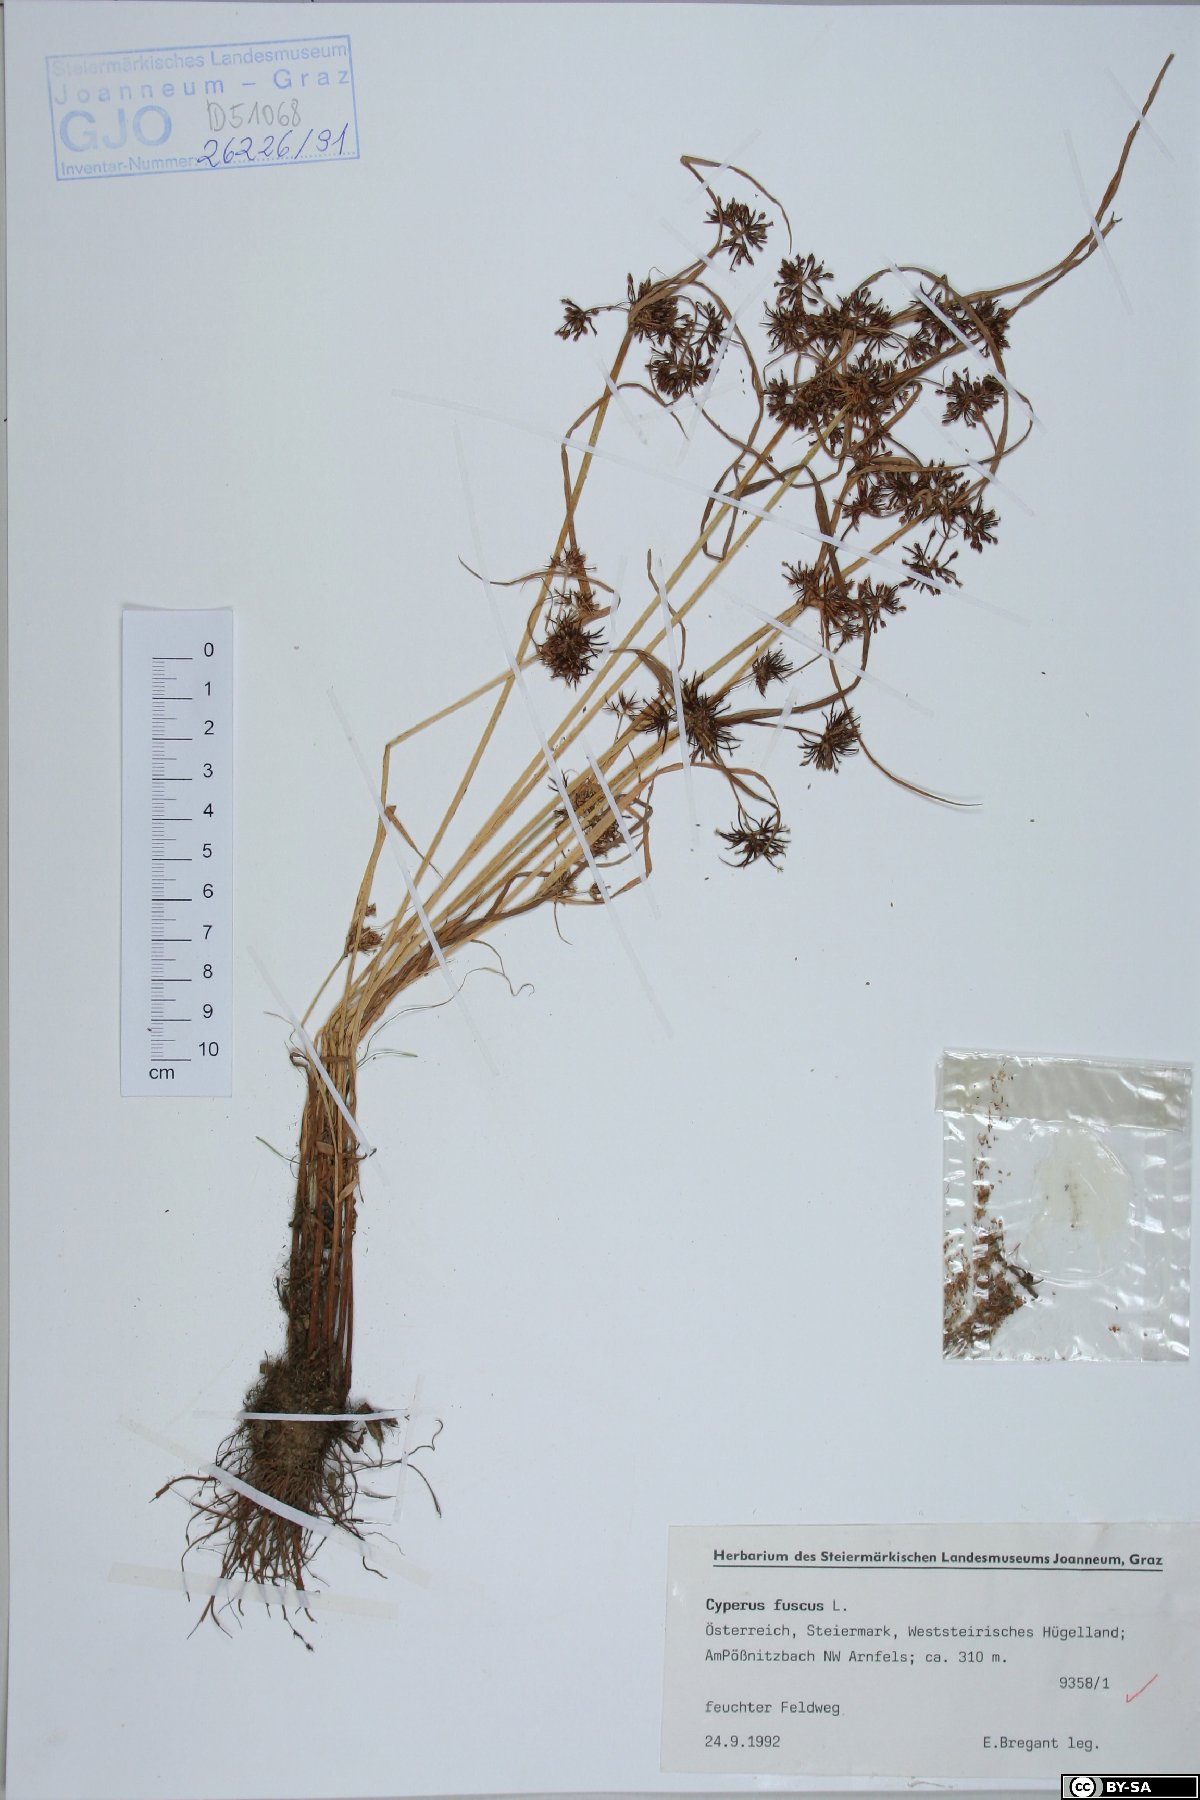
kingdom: Plantae
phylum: Tracheophyta
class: Liliopsida
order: Poales
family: Cyperaceae
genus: Cyperus
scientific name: Cyperus fuscus
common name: Brown galingale
